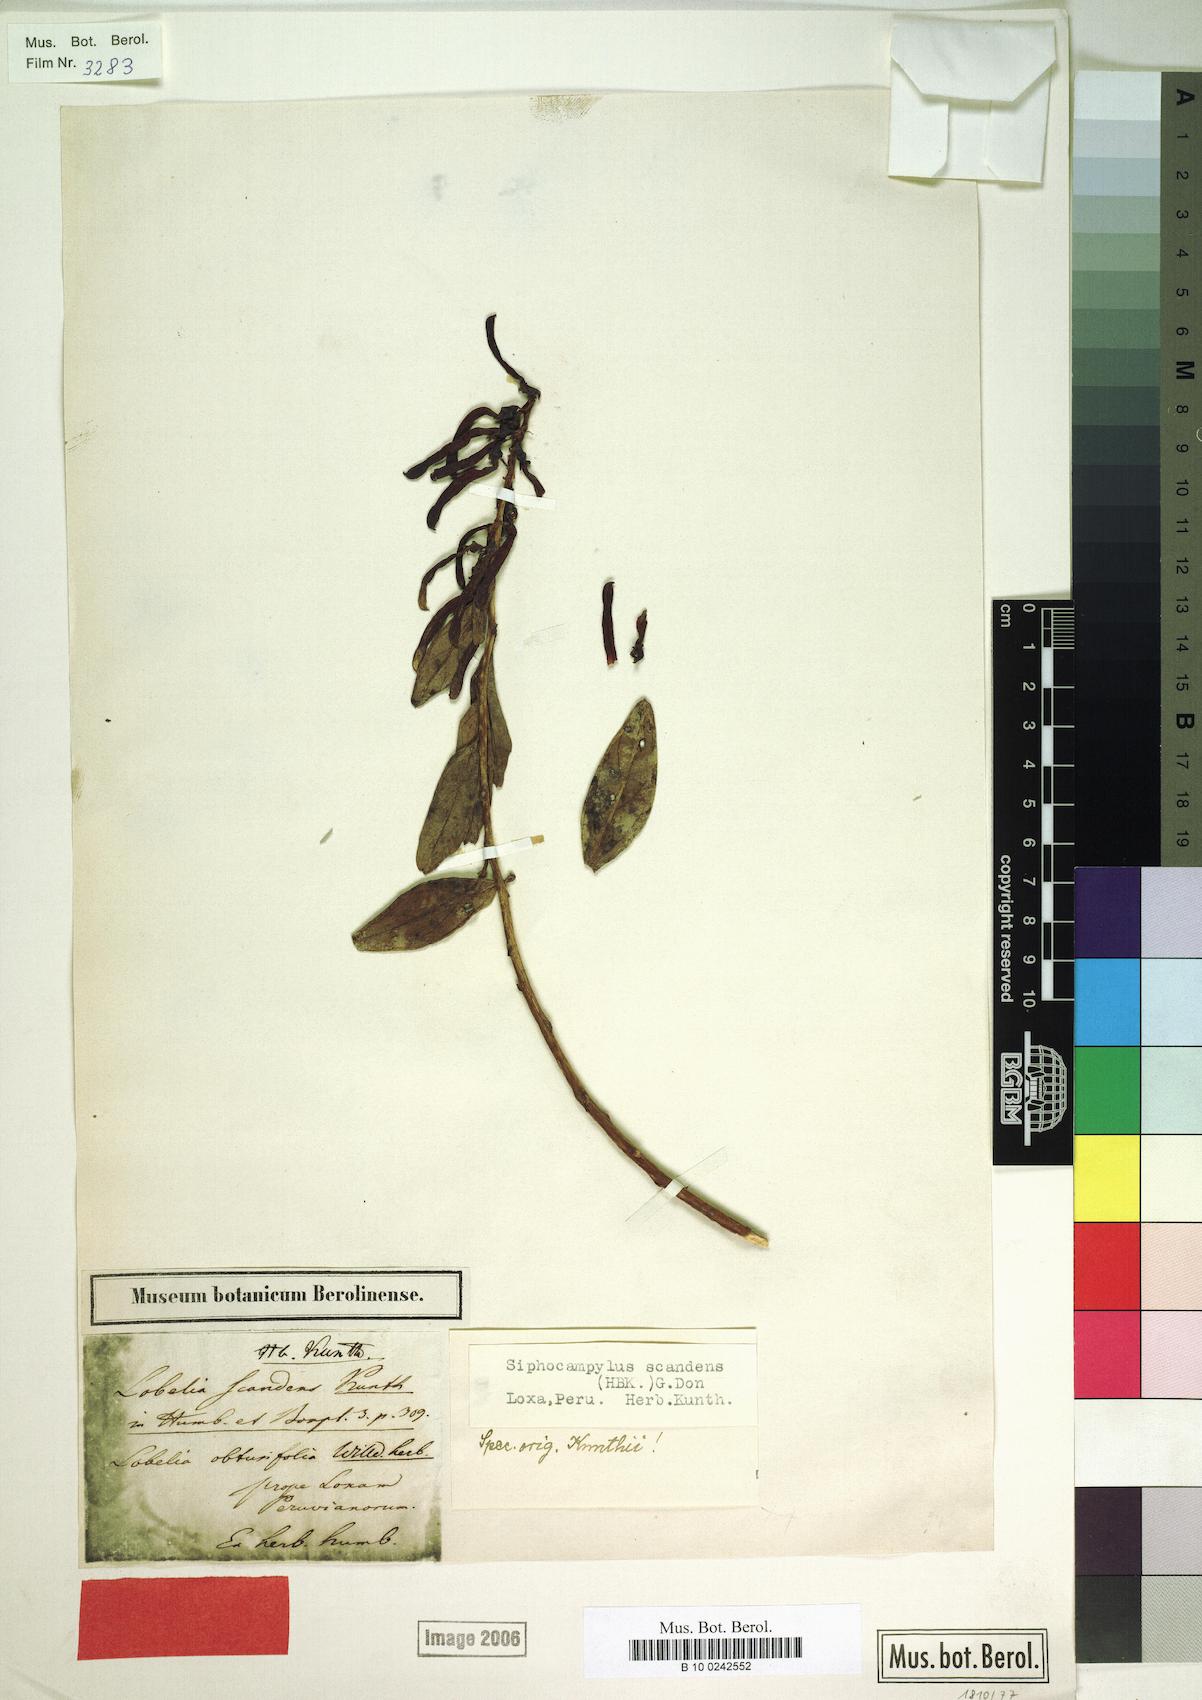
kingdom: Plantae
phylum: Tracheophyta
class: Magnoliopsida
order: Asterales
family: Campanulaceae
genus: Siphocampylus
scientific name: Siphocampylus scandens
